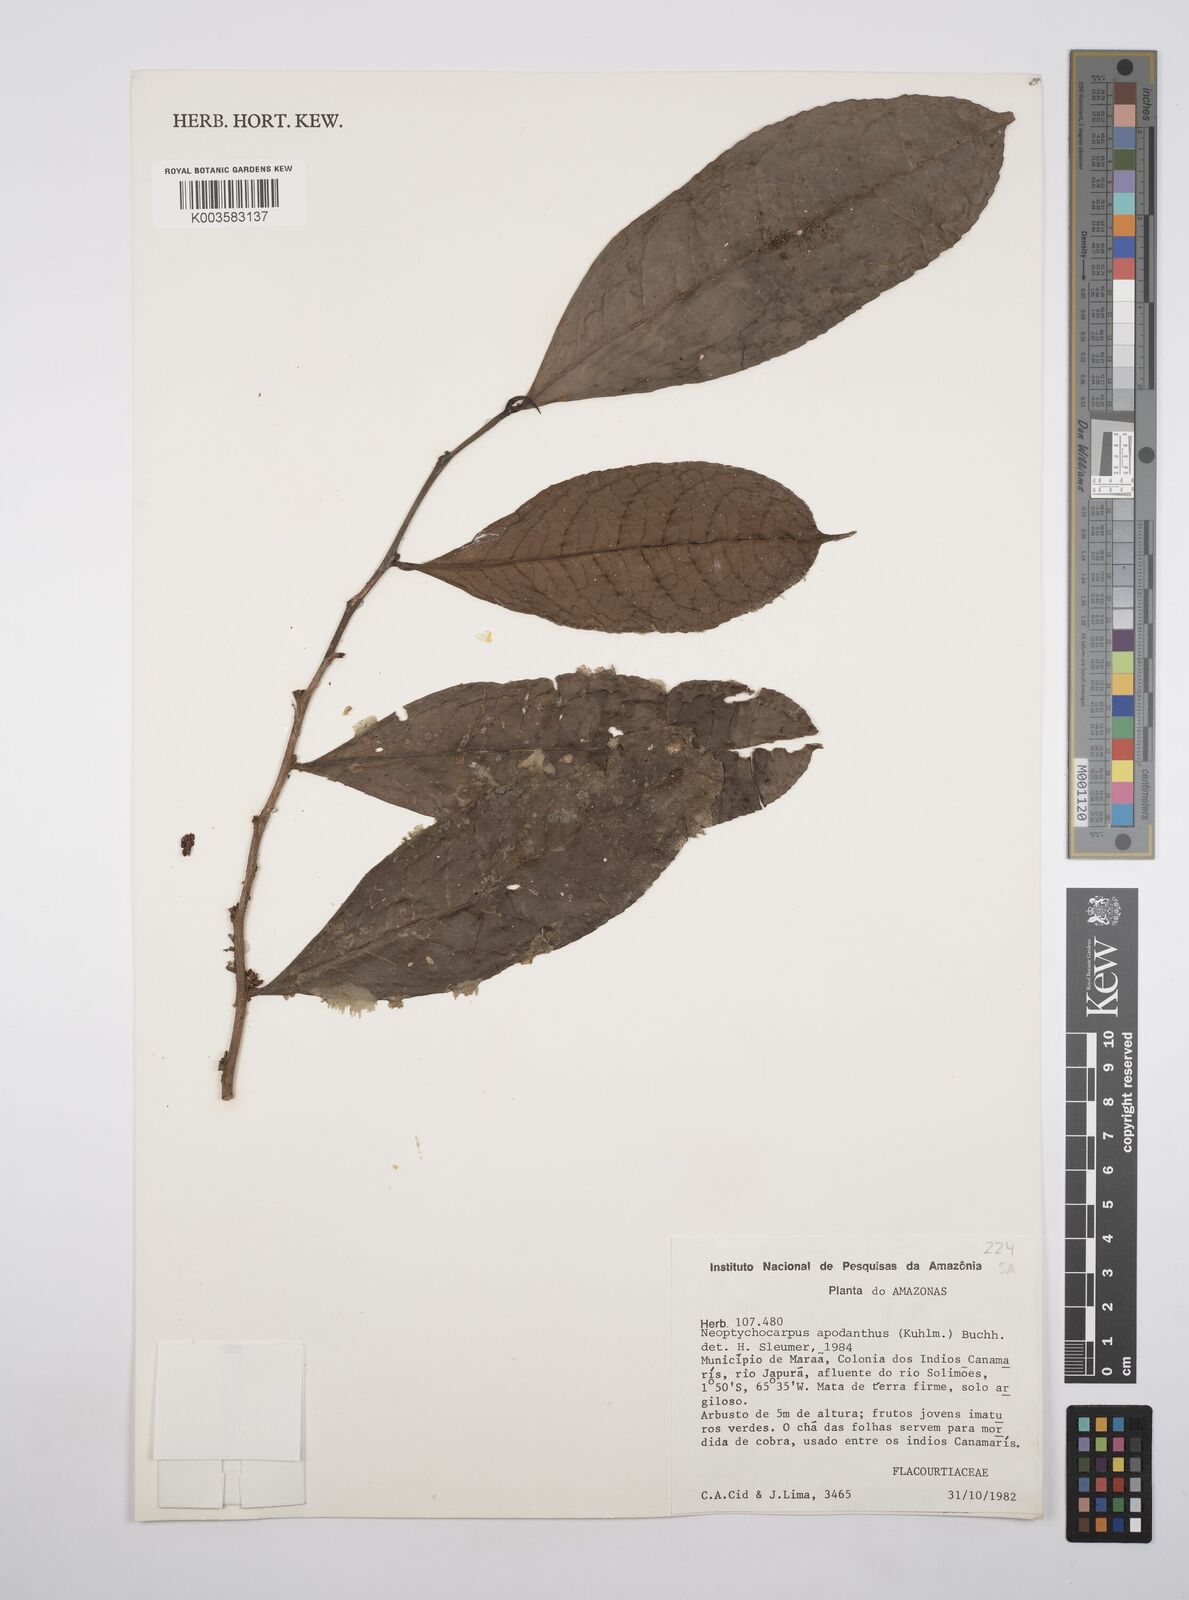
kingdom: Plantae
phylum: Tracheophyta
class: Magnoliopsida
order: Malpighiales
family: Salicaceae
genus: Casearia
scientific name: Casearia apodantha
